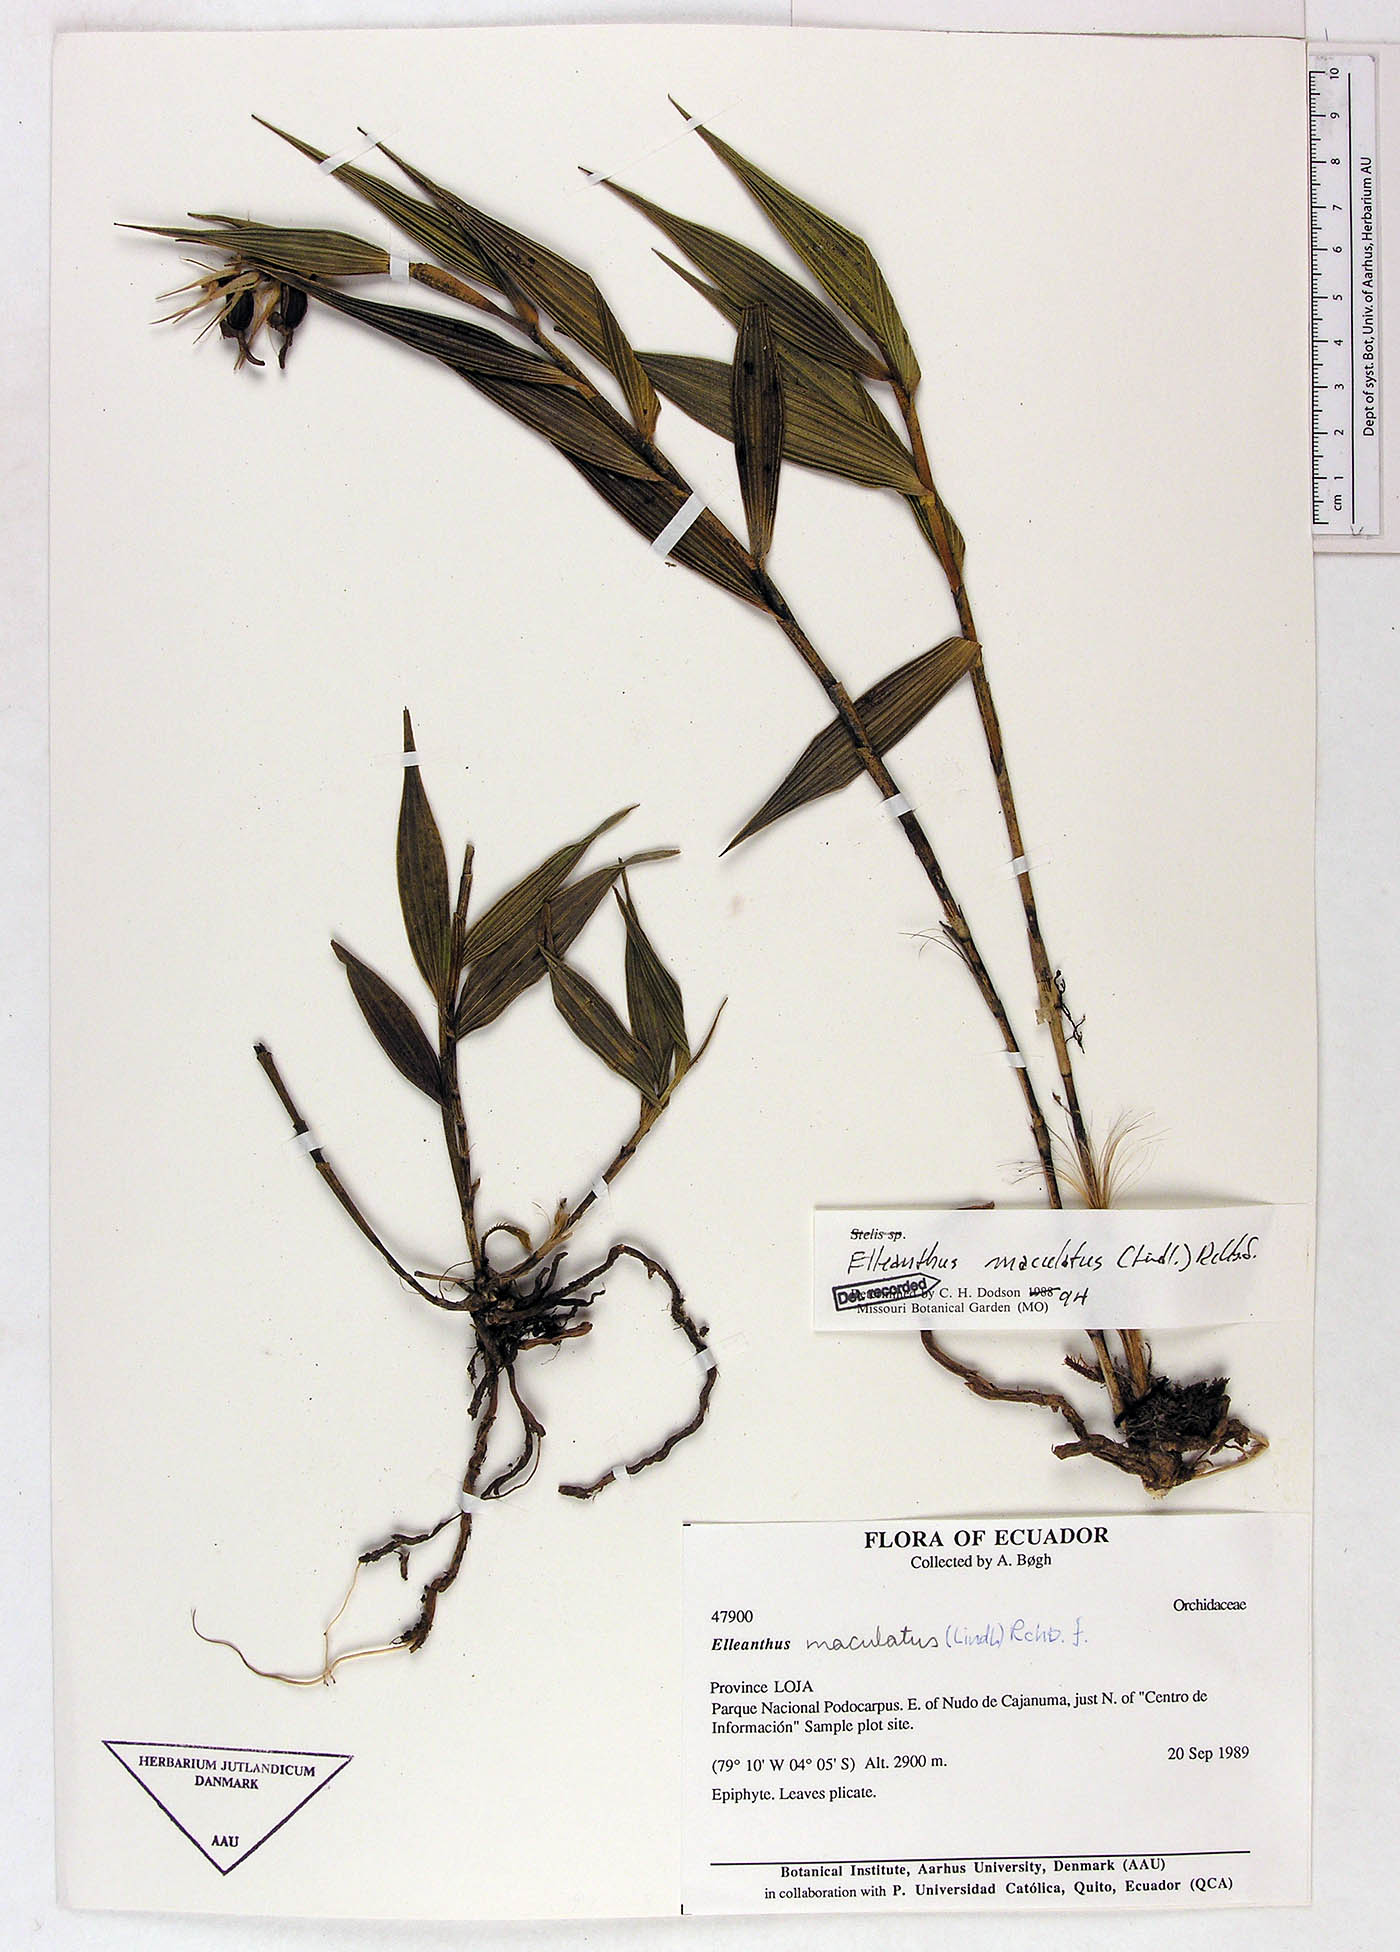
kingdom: Plantae
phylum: Tracheophyta
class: Liliopsida
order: Asparagales
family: Orchidaceae
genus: Elleanthus
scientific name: Elleanthus maculatus
